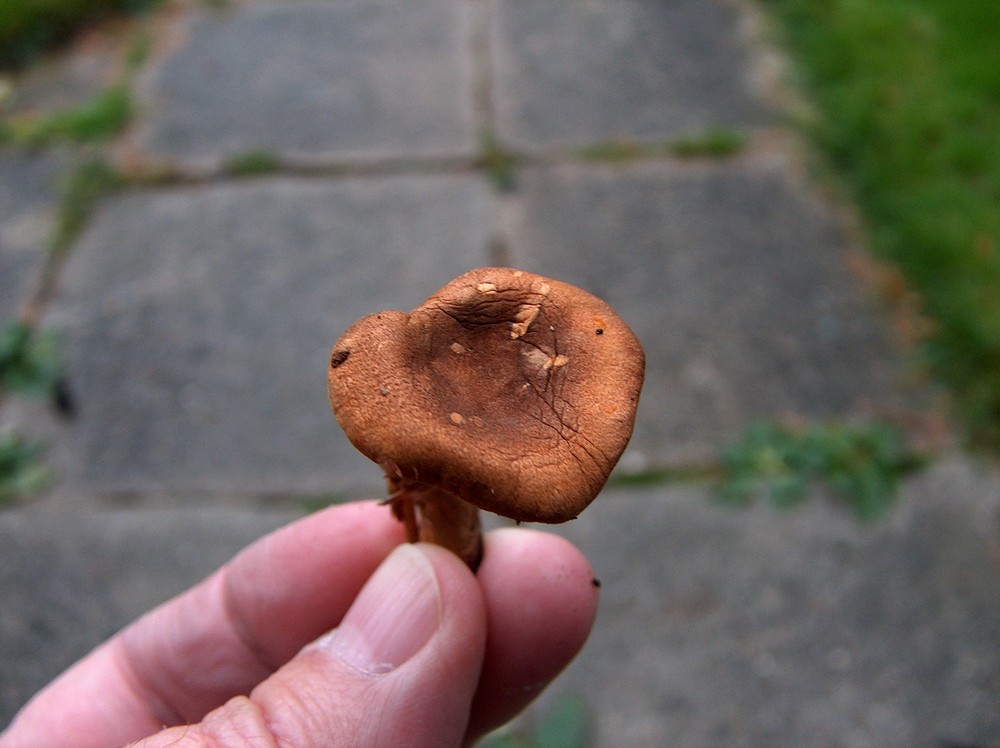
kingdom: Fungi
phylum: Basidiomycota
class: Agaricomycetes
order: Boletales
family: Hygrophoropsidaceae
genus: Hygrophoropsis
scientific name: Hygrophoropsis rufa
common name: brunfiltet orangekantarel
